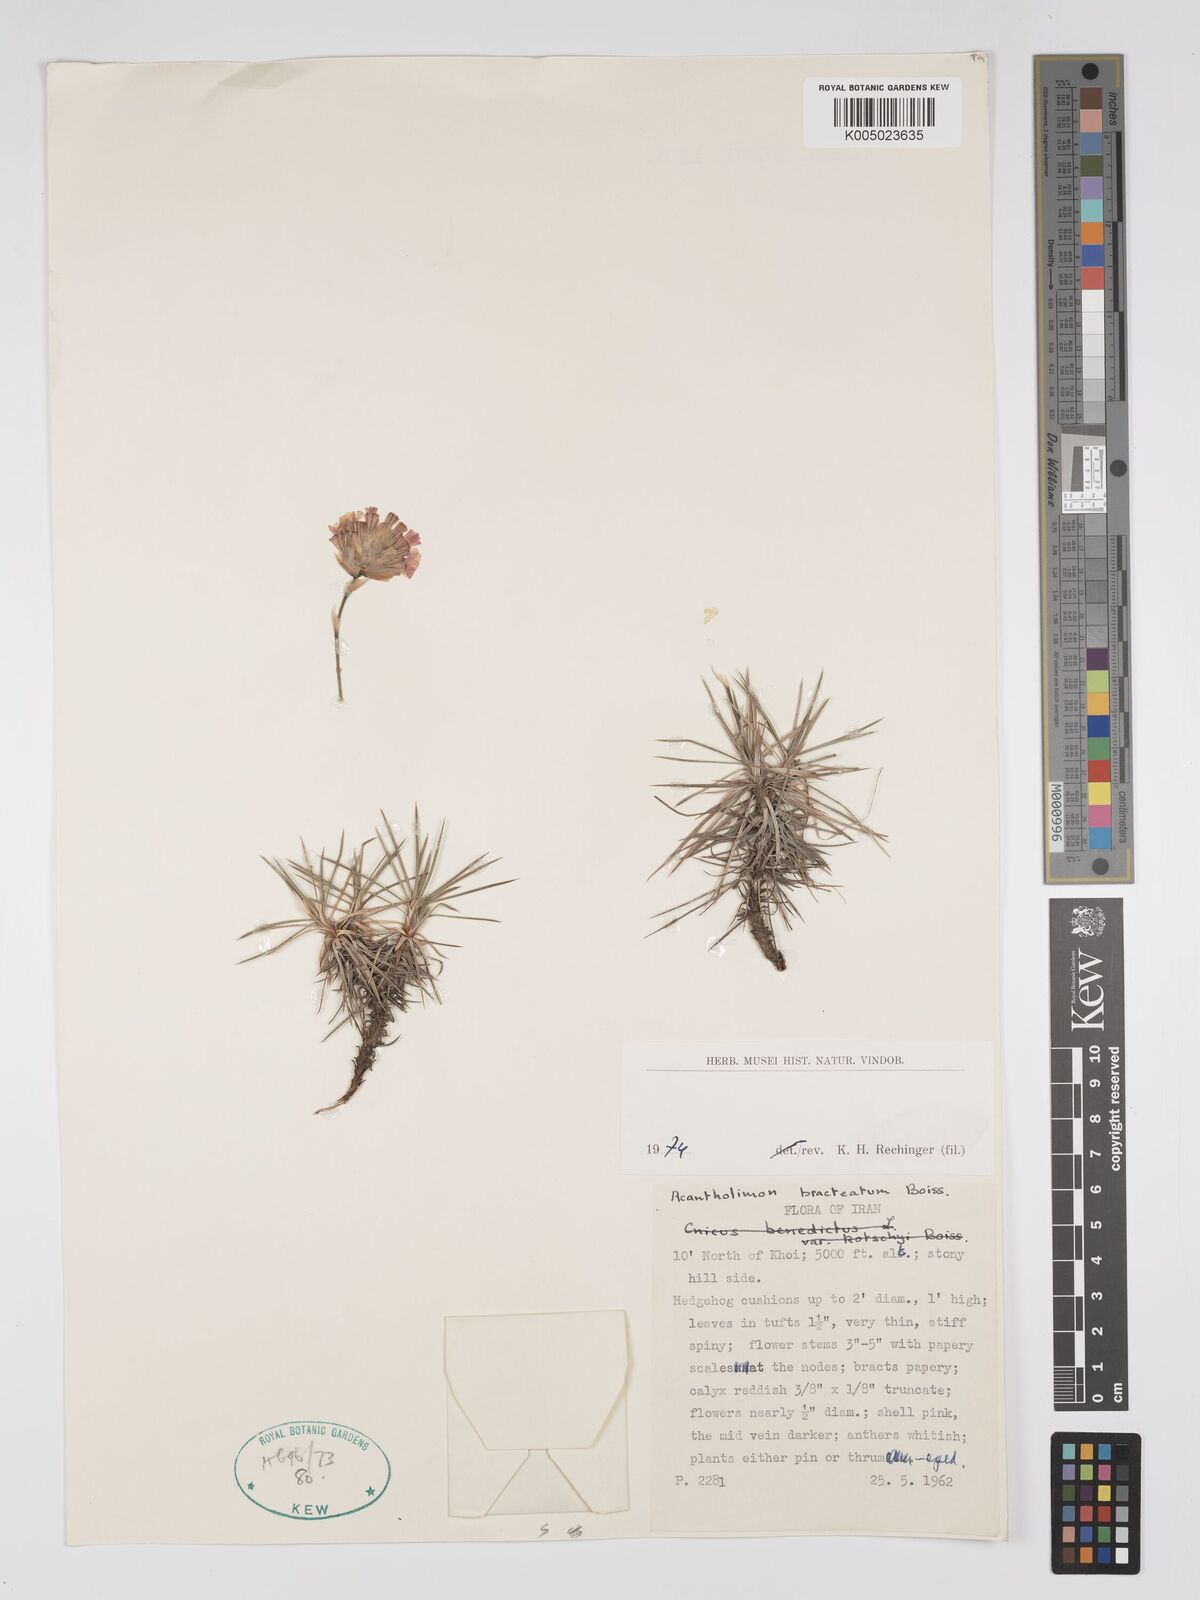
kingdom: Plantae
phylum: Tracheophyta
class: Magnoliopsida
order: Caryophyllales
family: Plumbaginaceae
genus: Acantholimon
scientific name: Acantholimon bracteatum
